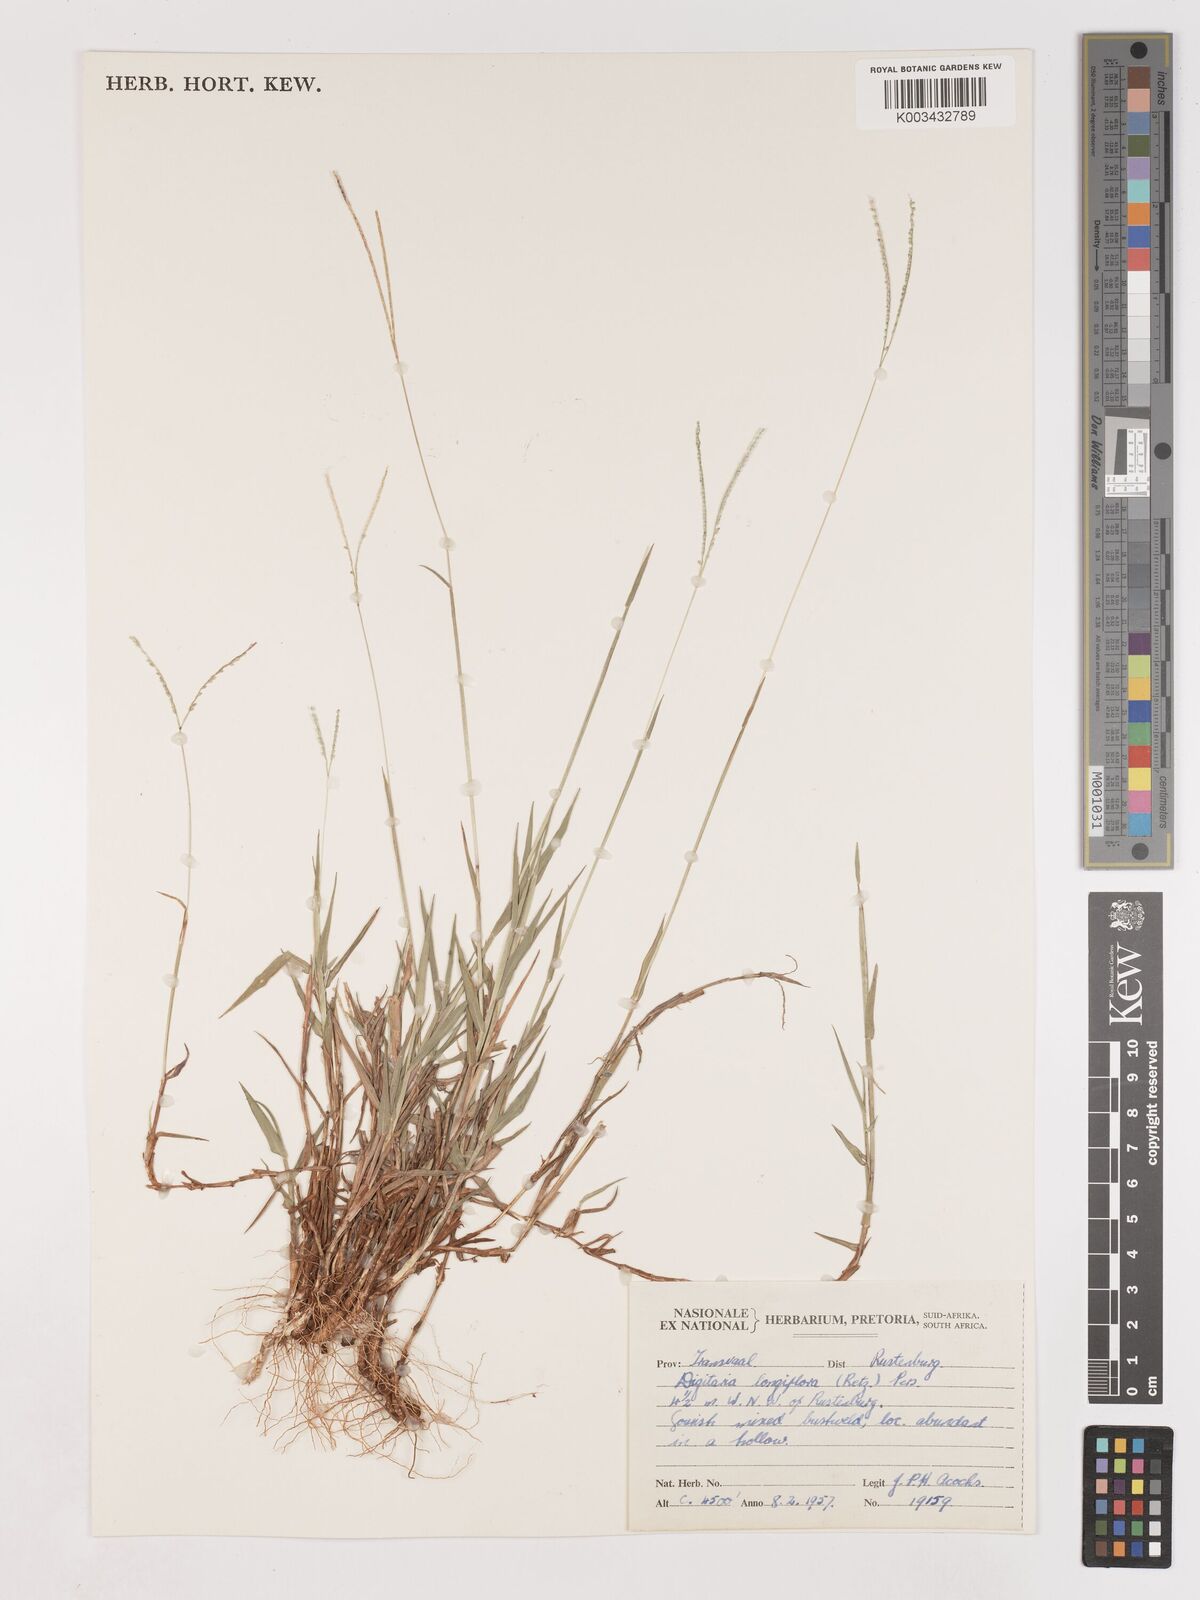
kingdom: Plantae
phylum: Tracheophyta
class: Liliopsida
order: Poales
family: Poaceae
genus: Digitaria
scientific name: Digitaria longiflora
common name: Wire crabgrass
